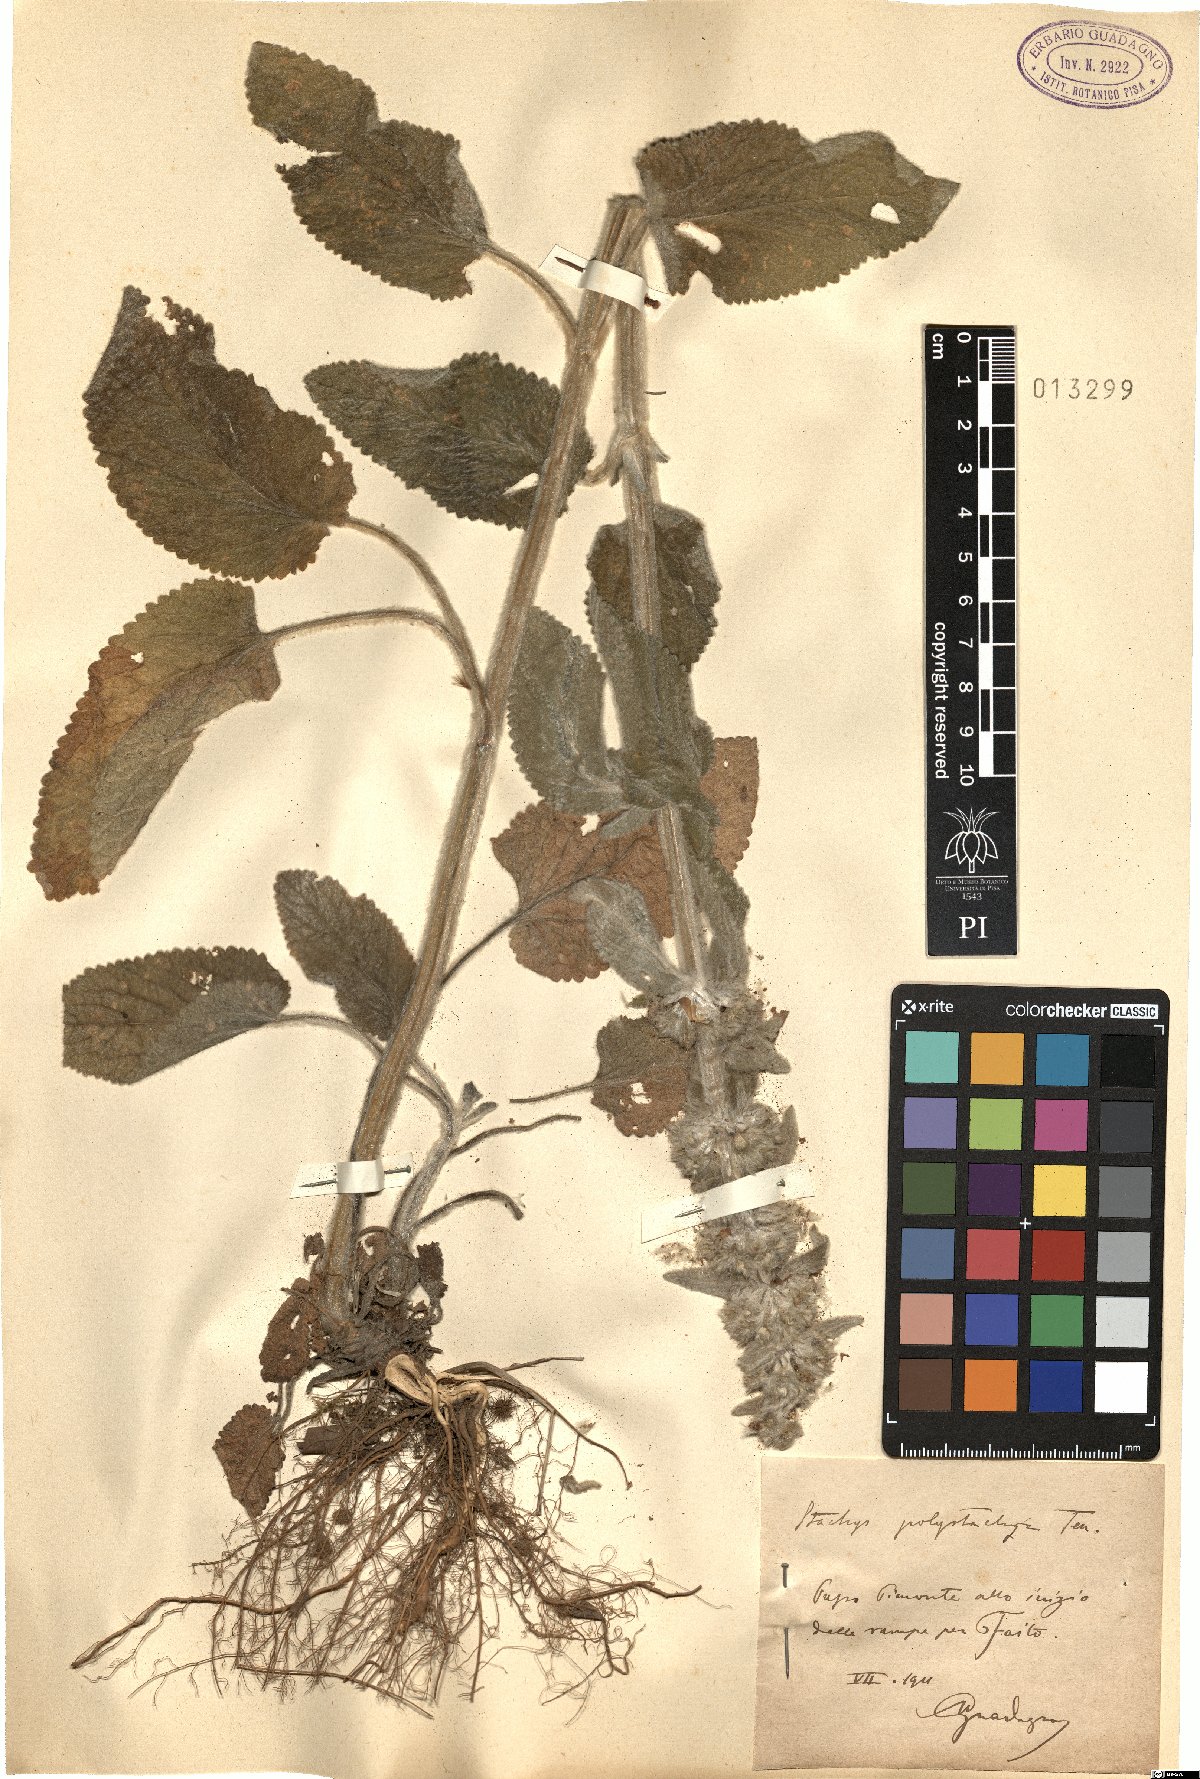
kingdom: Plantae
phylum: Tracheophyta
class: Magnoliopsida
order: Lamiales
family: Lamiaceae
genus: Stachys
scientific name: Stachys germanica
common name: Downy woundwort
